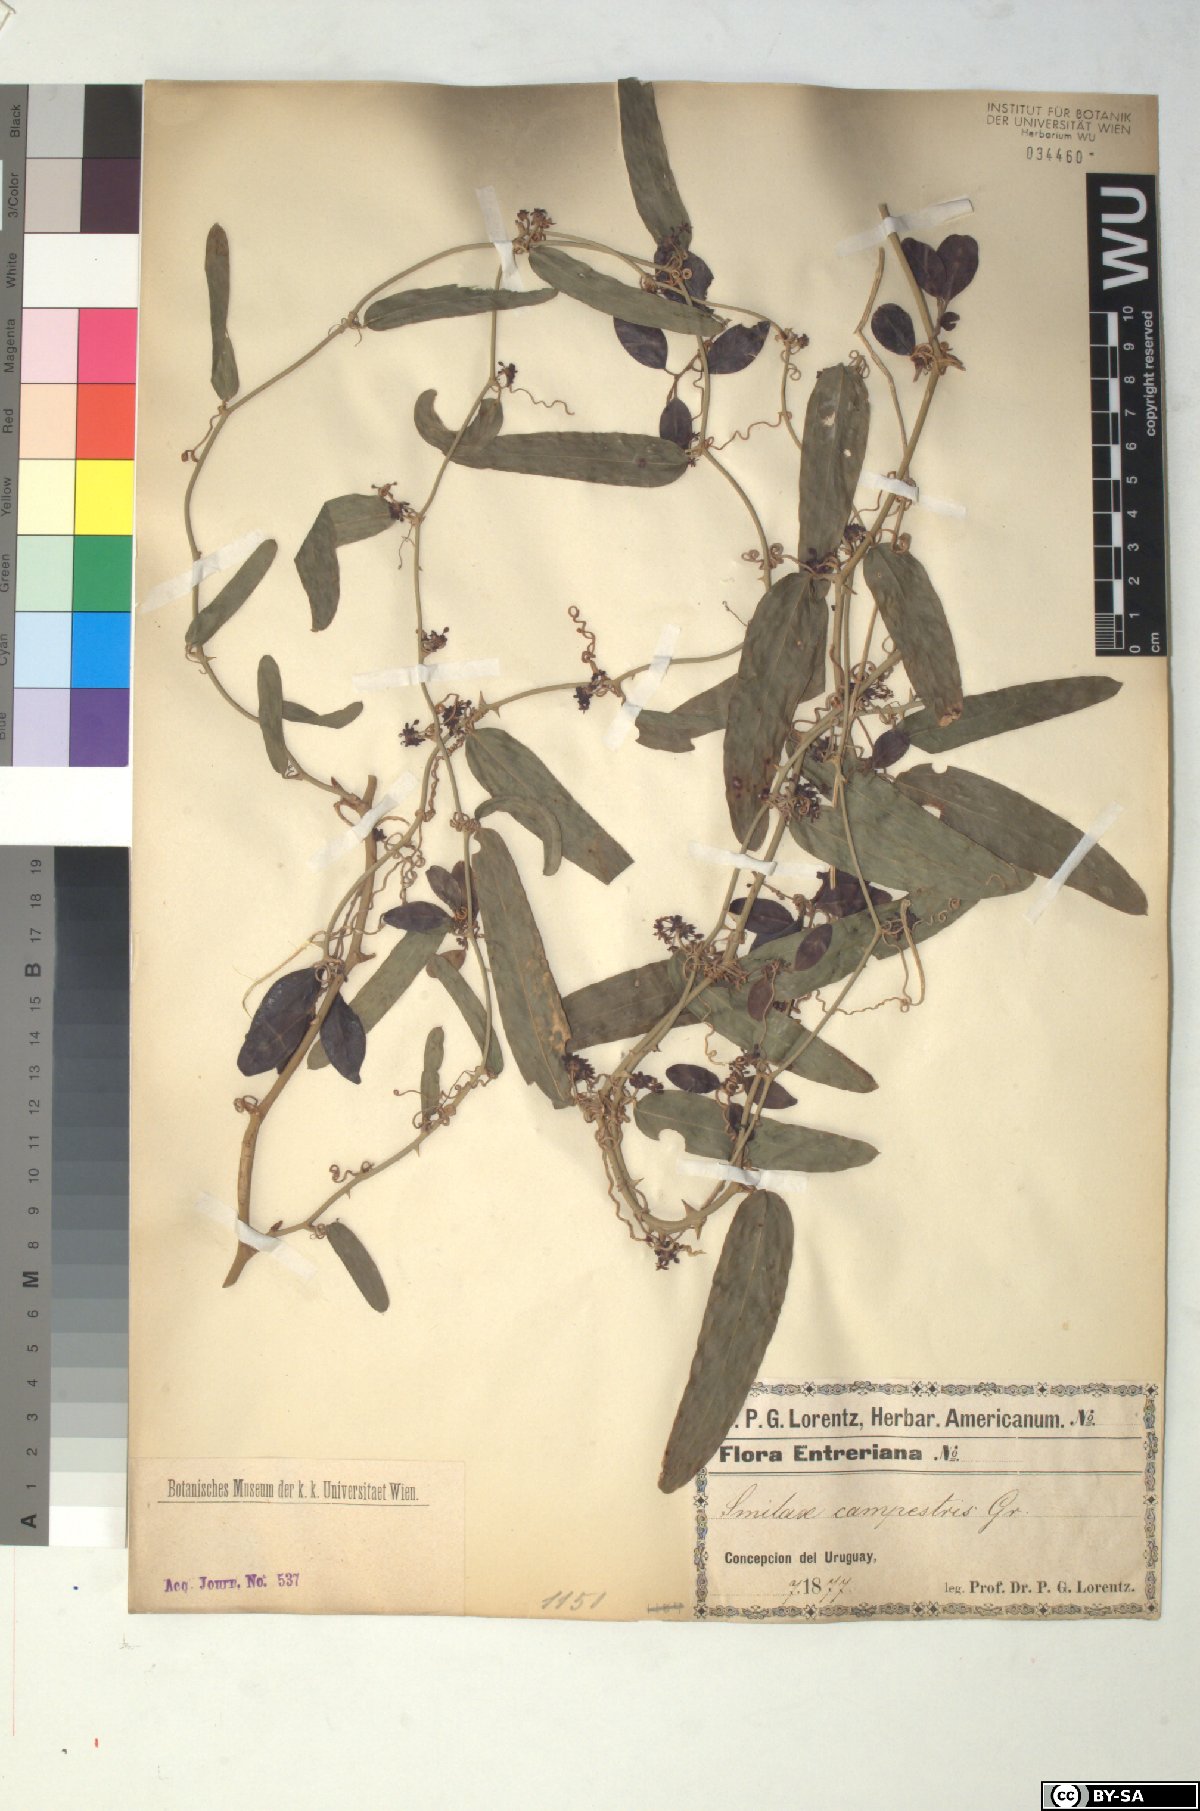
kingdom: Plantae
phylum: Tracheophyta
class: Liliopsida
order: Liliales
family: Smilacaceae
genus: Smilax
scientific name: Smilax campestris
